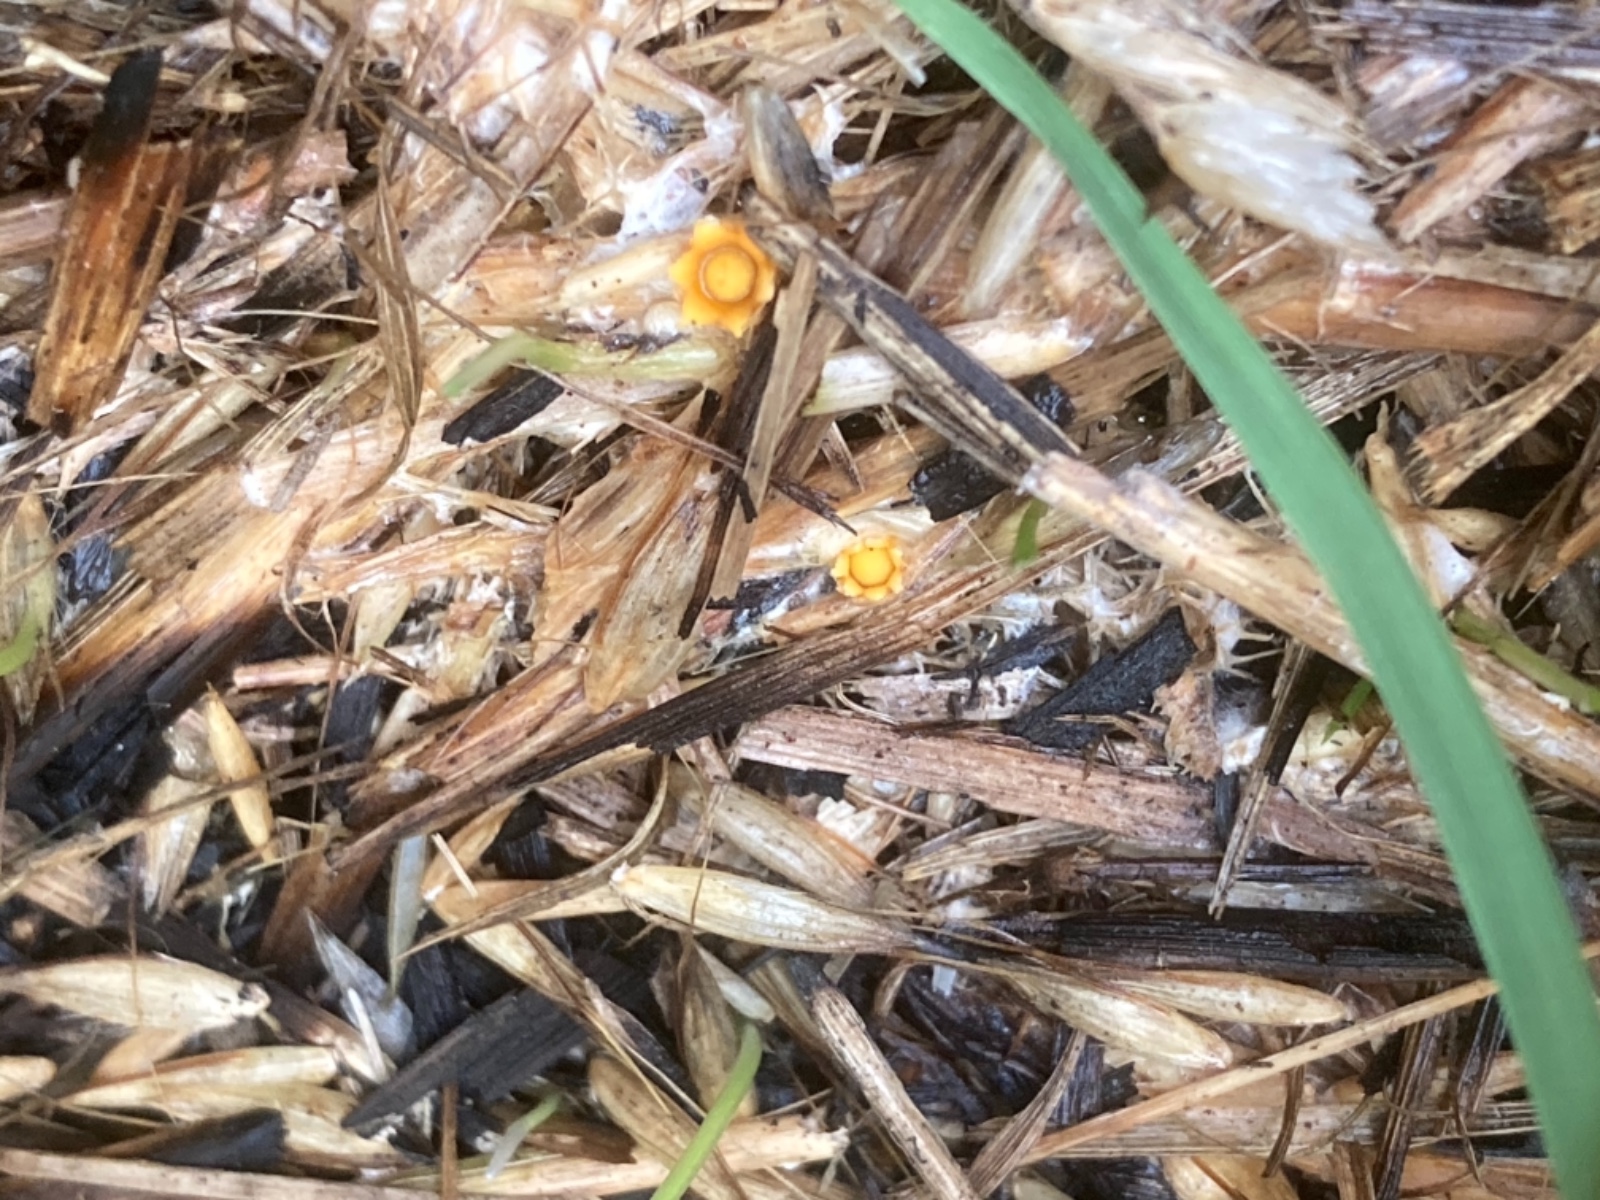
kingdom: Fungi
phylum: Basidiomycota
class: Agaricomycetes
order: Geastrales
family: Geastraceae
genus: Sphaerobolus
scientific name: Sphaerobolus stellatus
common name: bombekaster
